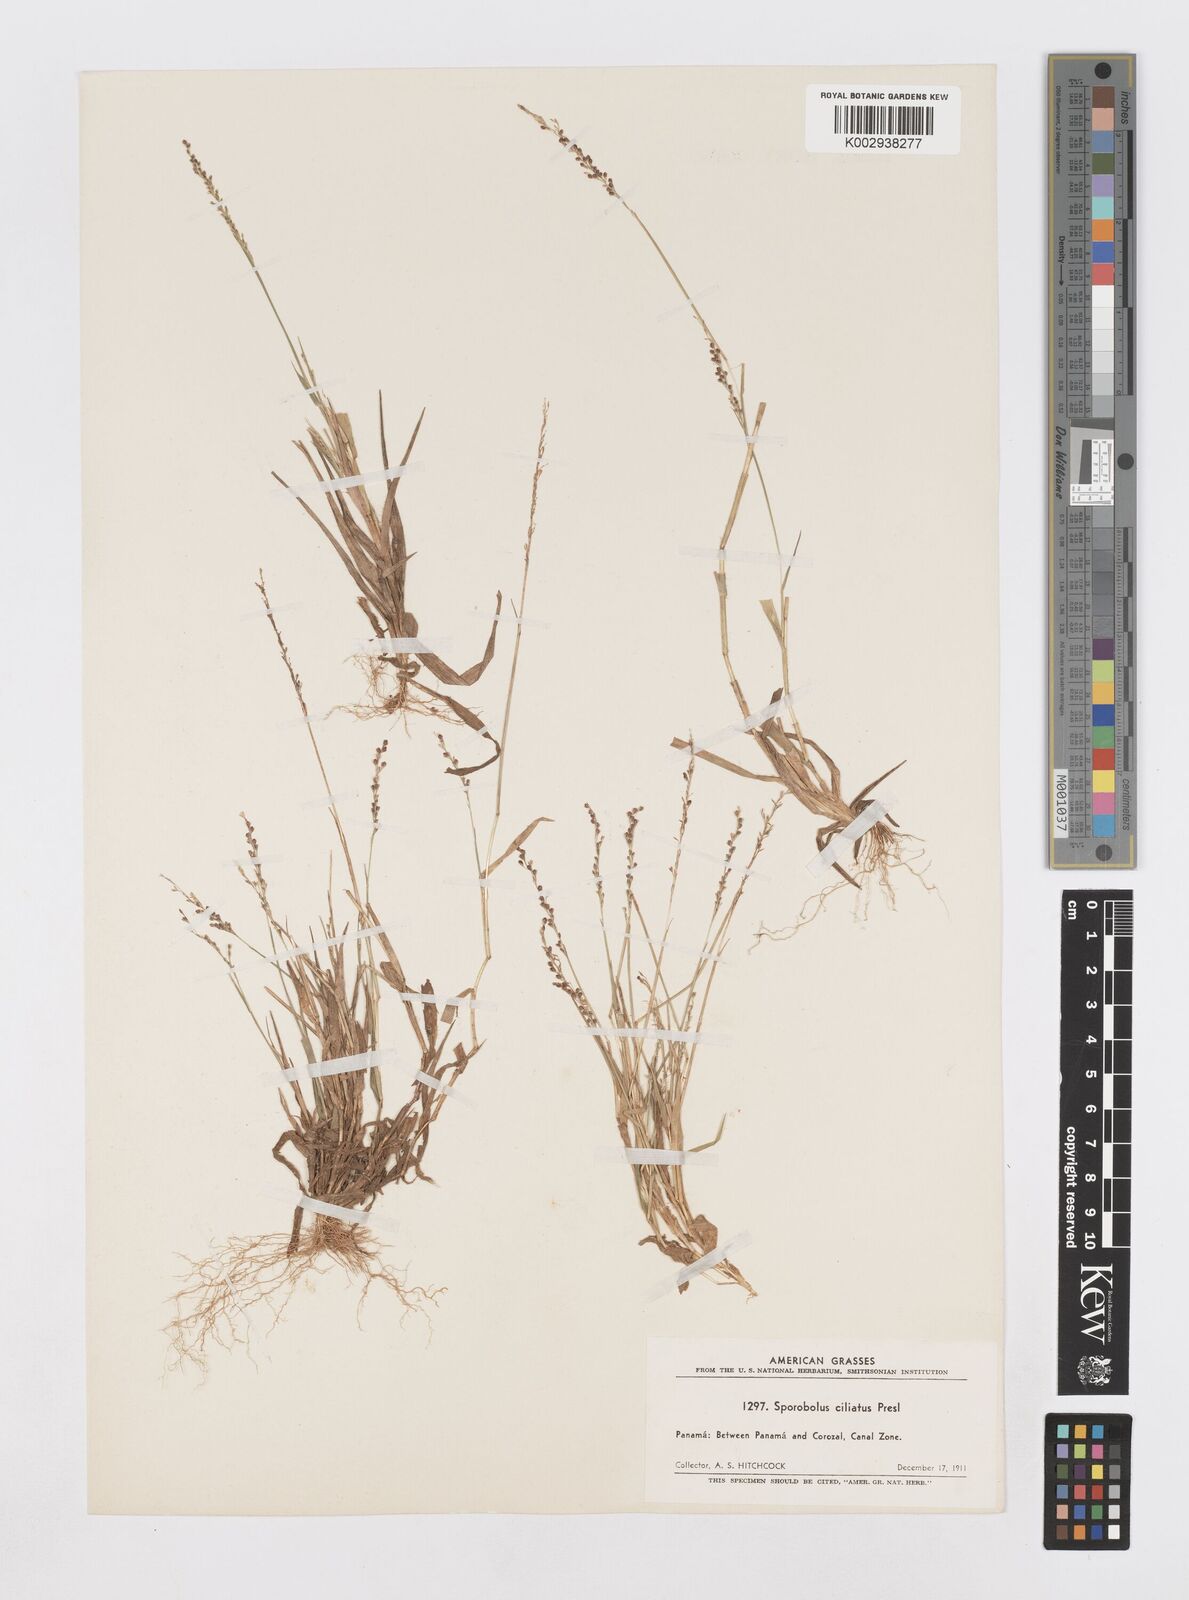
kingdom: Plantae
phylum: Tracheophyta
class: Liliopsida
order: Poales
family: Poaceae
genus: Sporobolus
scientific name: Sporobolus pilifer
